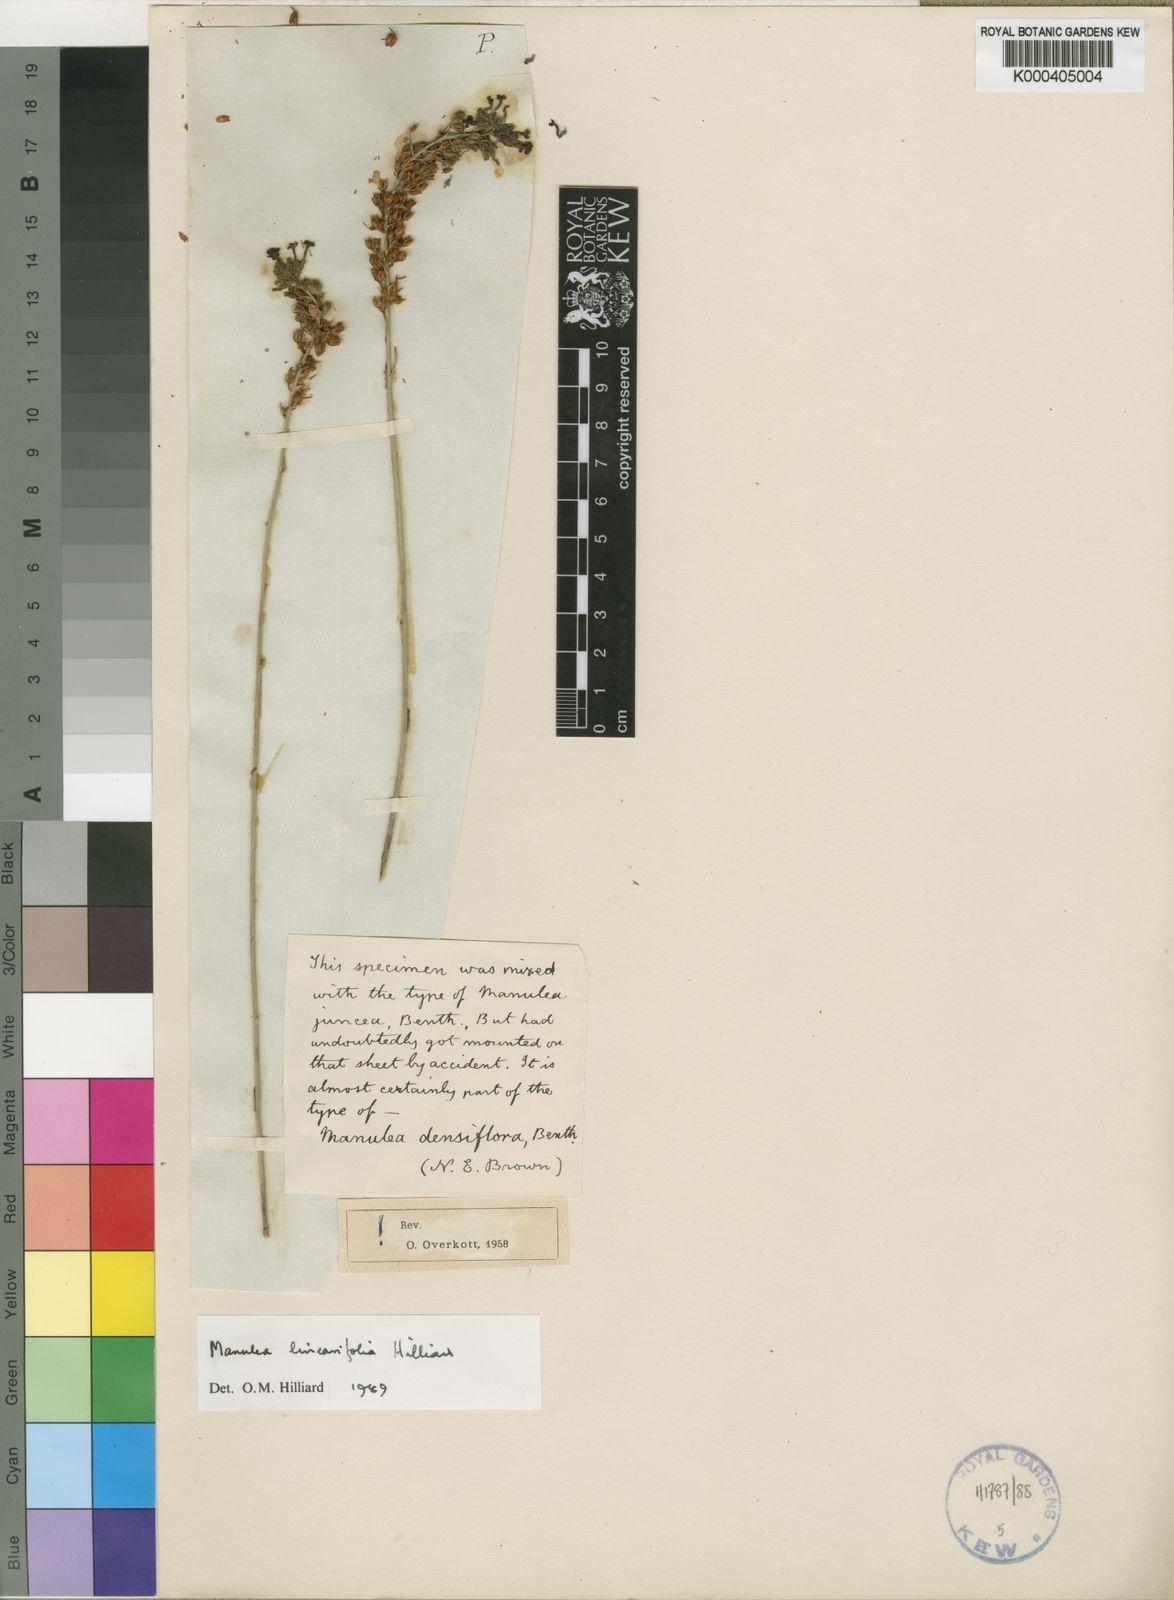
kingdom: Plantae
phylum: Tracheophyta
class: Magnoliopsida
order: Lamiales
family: Scrophulariaceae
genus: Manulea
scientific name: Manulea linearifolia
